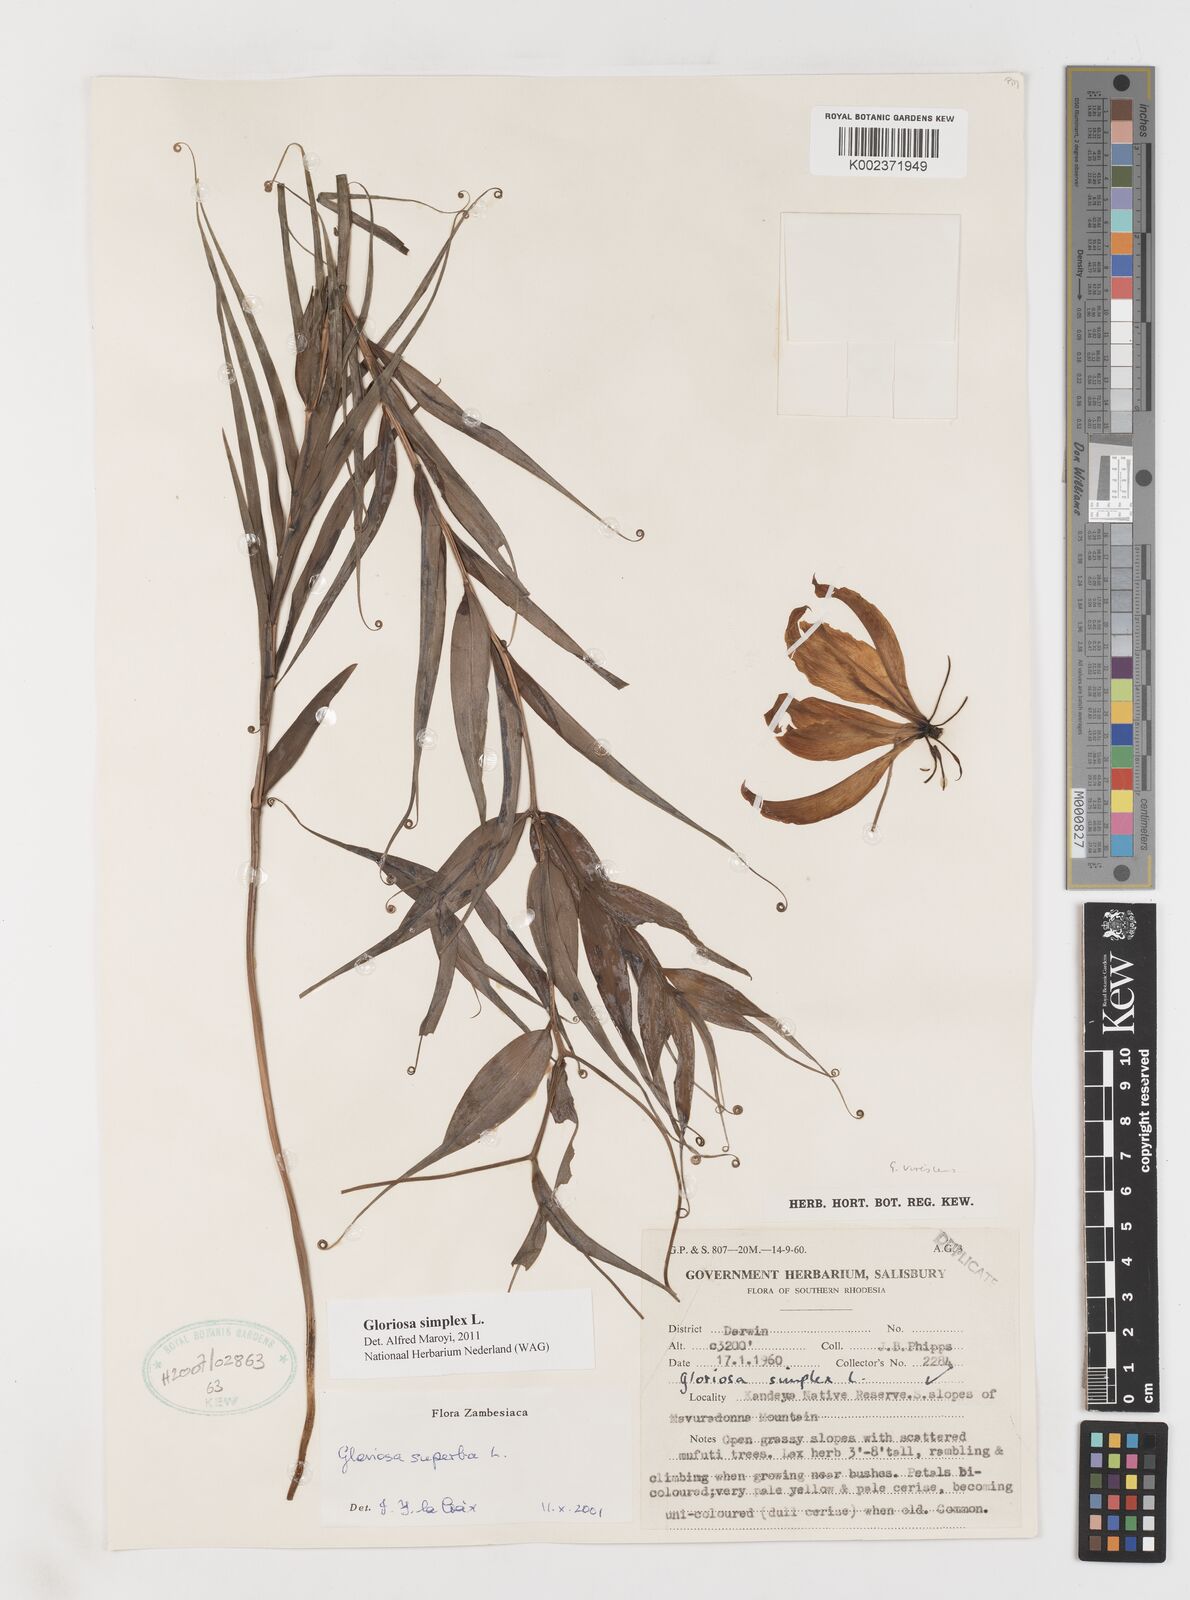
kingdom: Plantae
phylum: Tracheophyta
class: Liliopsida
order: Liliales
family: Colchicaceae
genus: Gloriosa
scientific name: Gloriosa simplex
